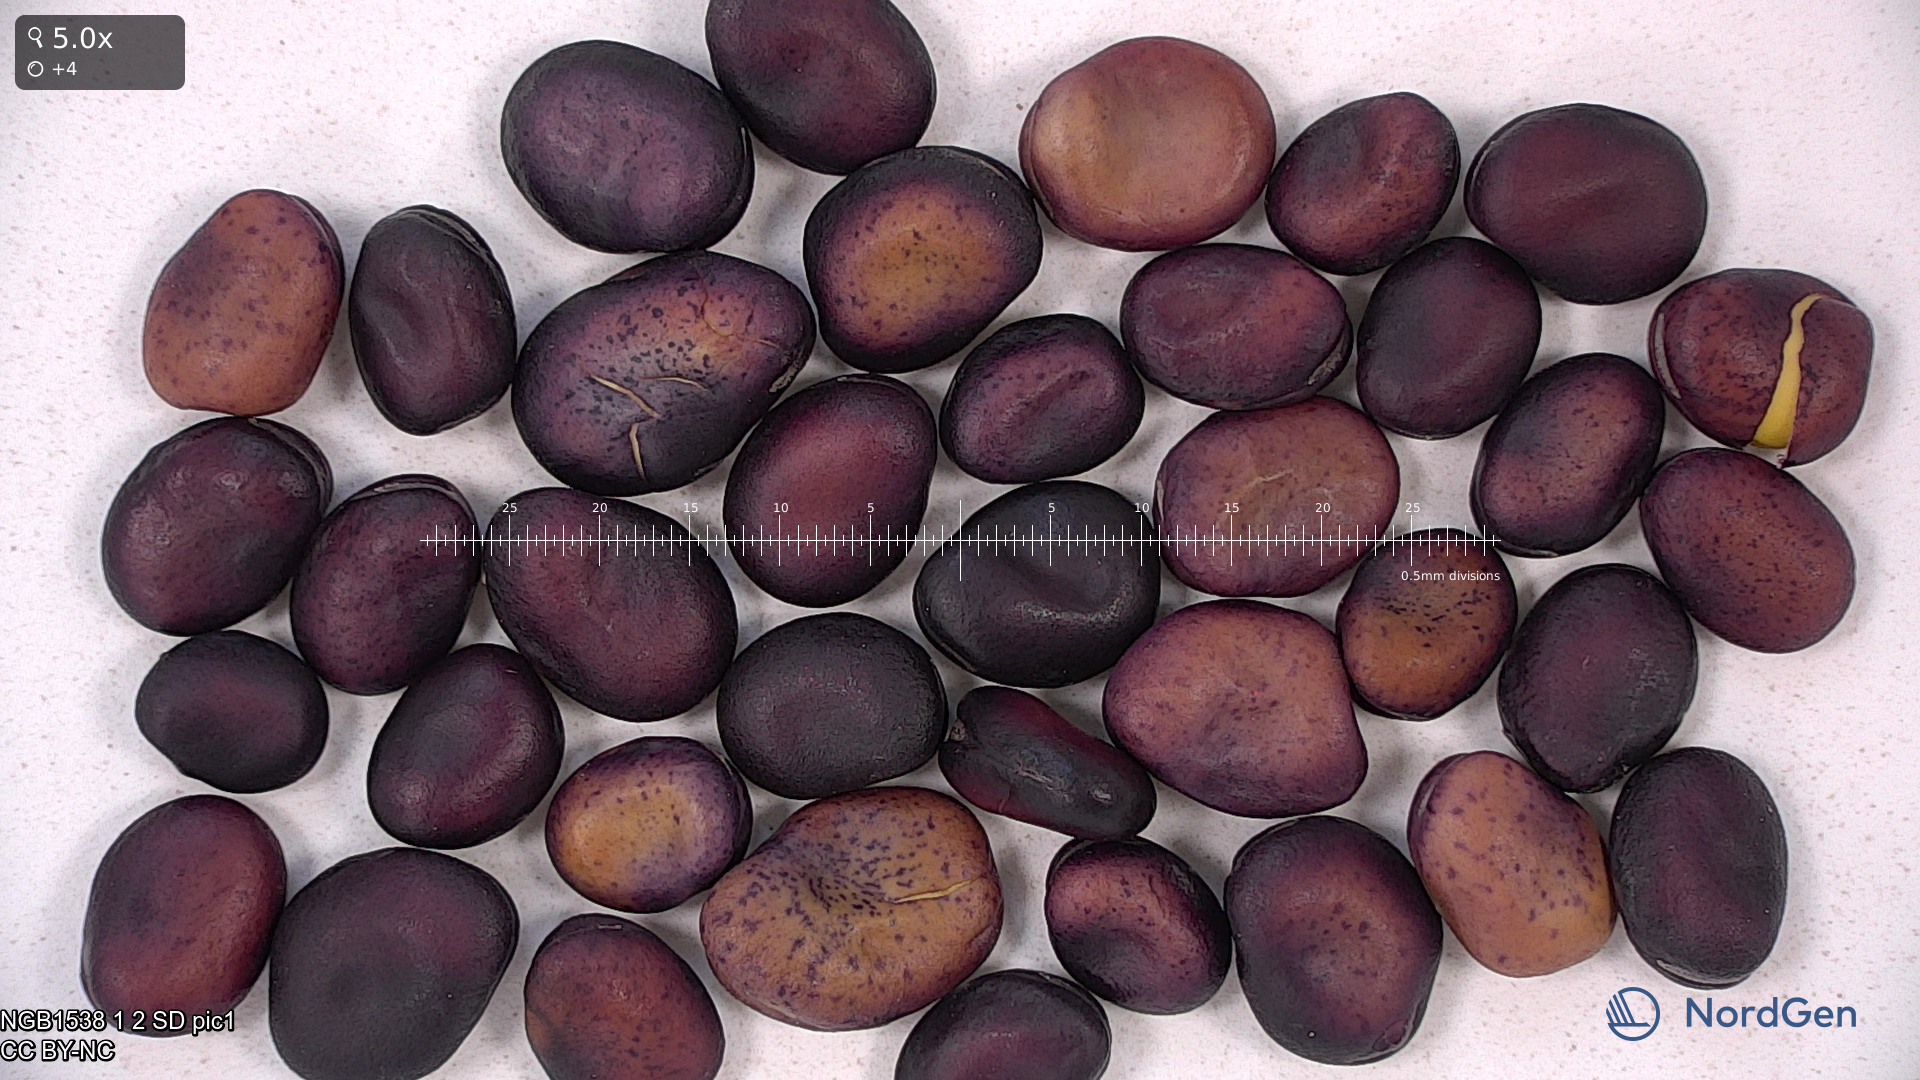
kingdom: Plantae
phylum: Tracheophyta
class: Magnoliopsida
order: Fabales
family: Fabaceae
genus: Vicia
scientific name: Vicia faba
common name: Broad bean
